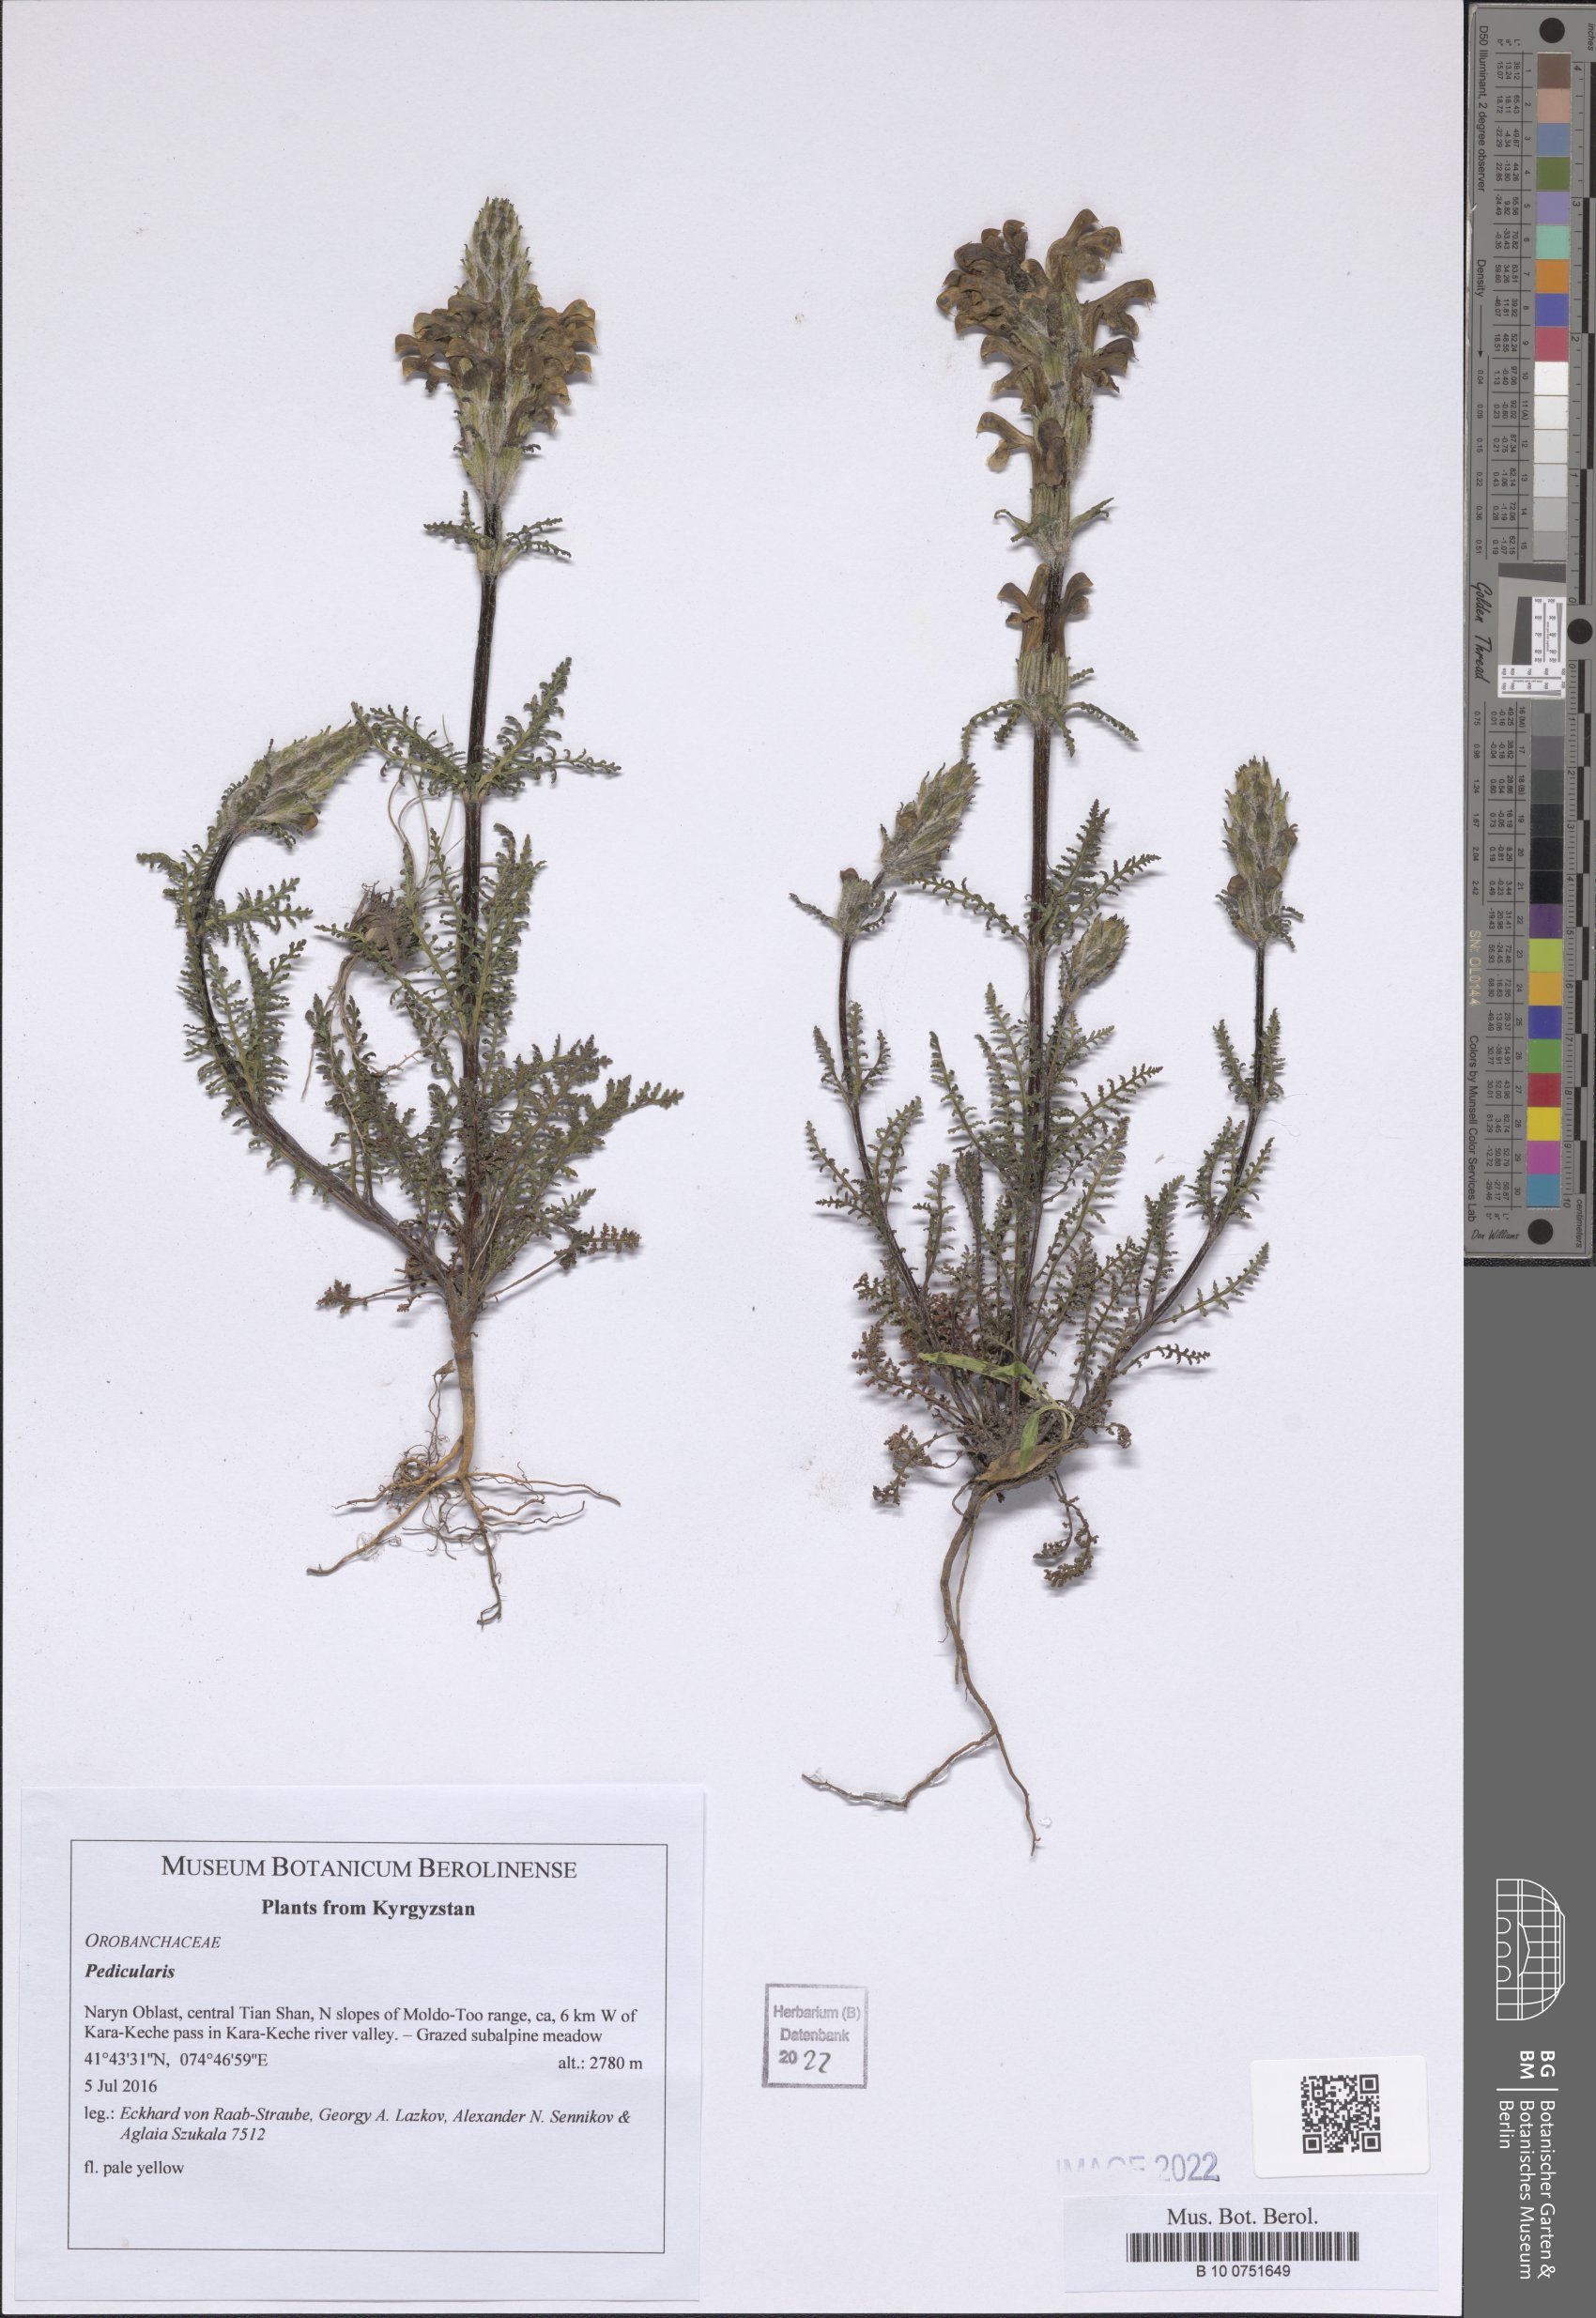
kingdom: Plantae
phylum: Tracheophyta
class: Magnoliopsida
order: Lamiales
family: Orobanchaceae
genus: Pedicularis
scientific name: Pedicularis
